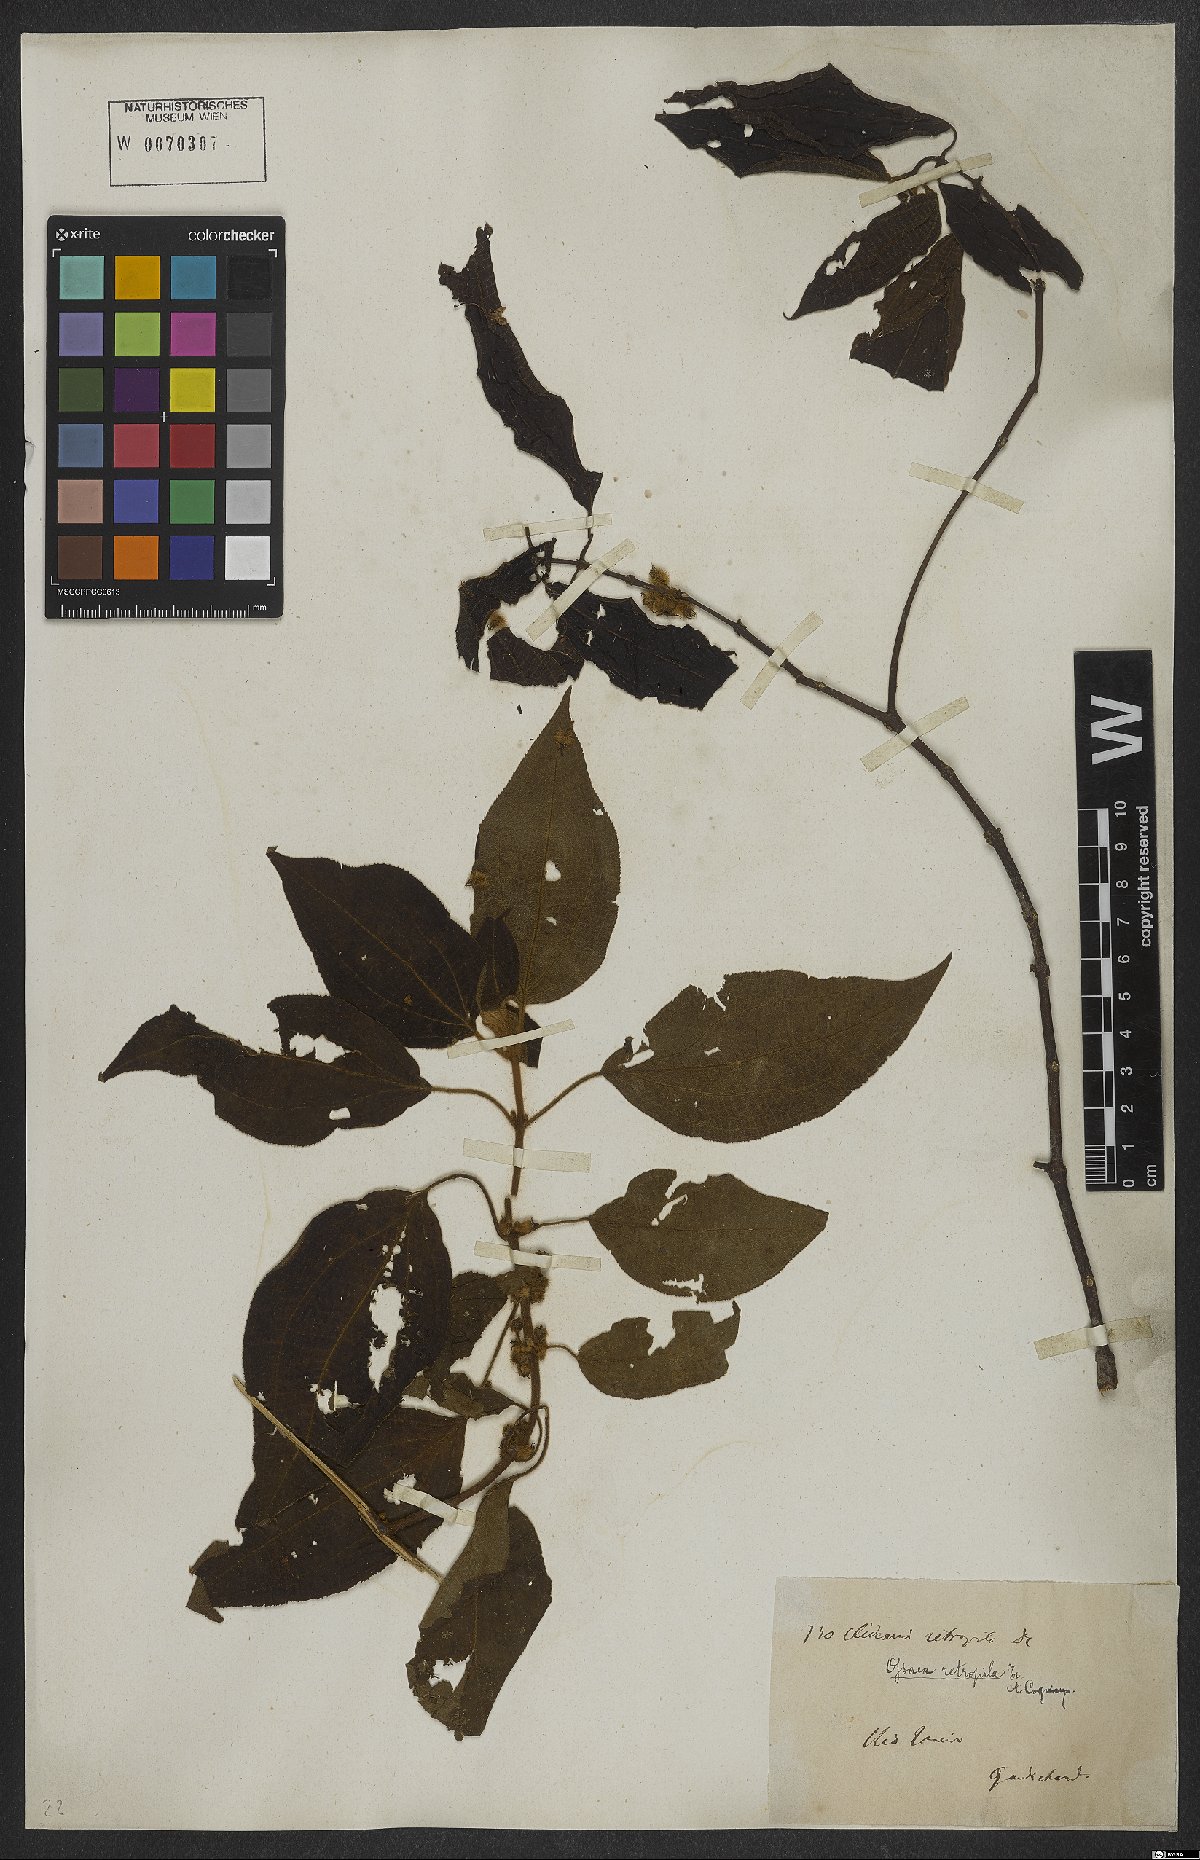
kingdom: Plantae
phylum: Tracheophyta
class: Magnoliopsida
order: Myrtales
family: Melastomataceae
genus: Miconia
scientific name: Miconia rubella
